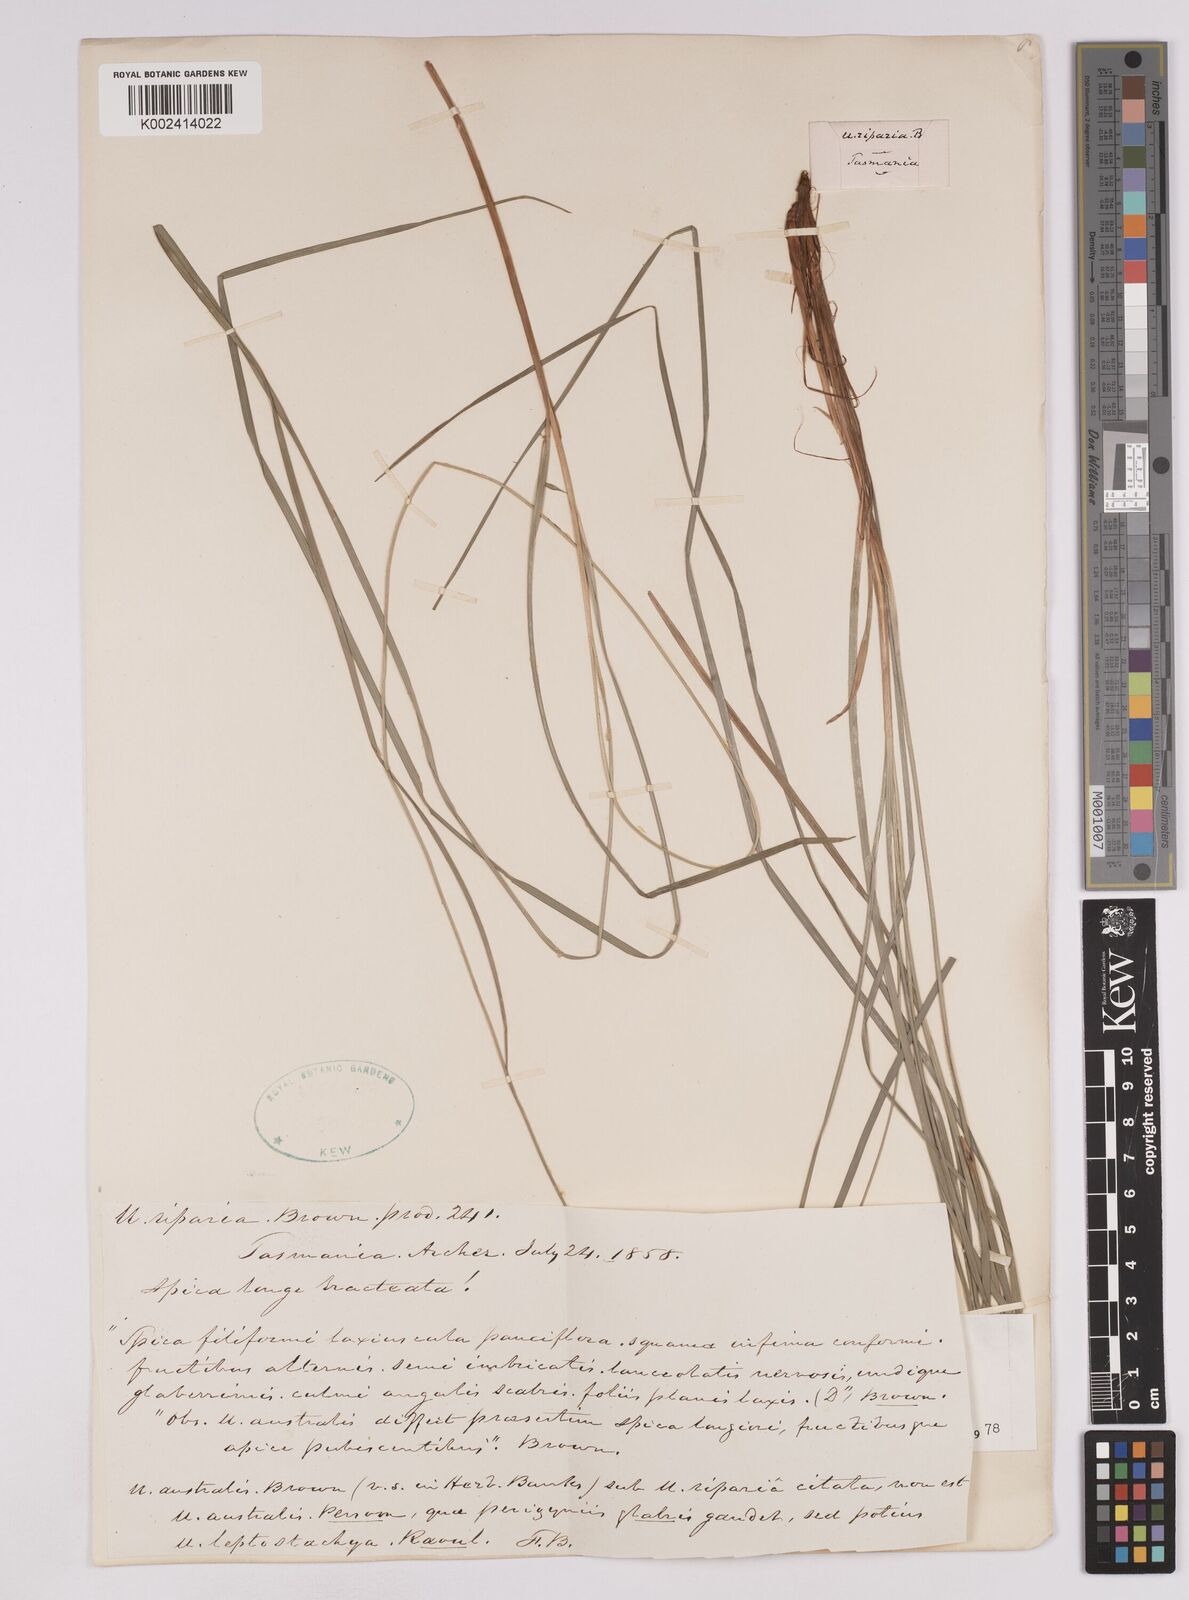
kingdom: Plantae
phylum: Tracheophyta
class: Liliopsida
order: Poales
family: Cyperaceae
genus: Carex
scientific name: Carex umbricola
